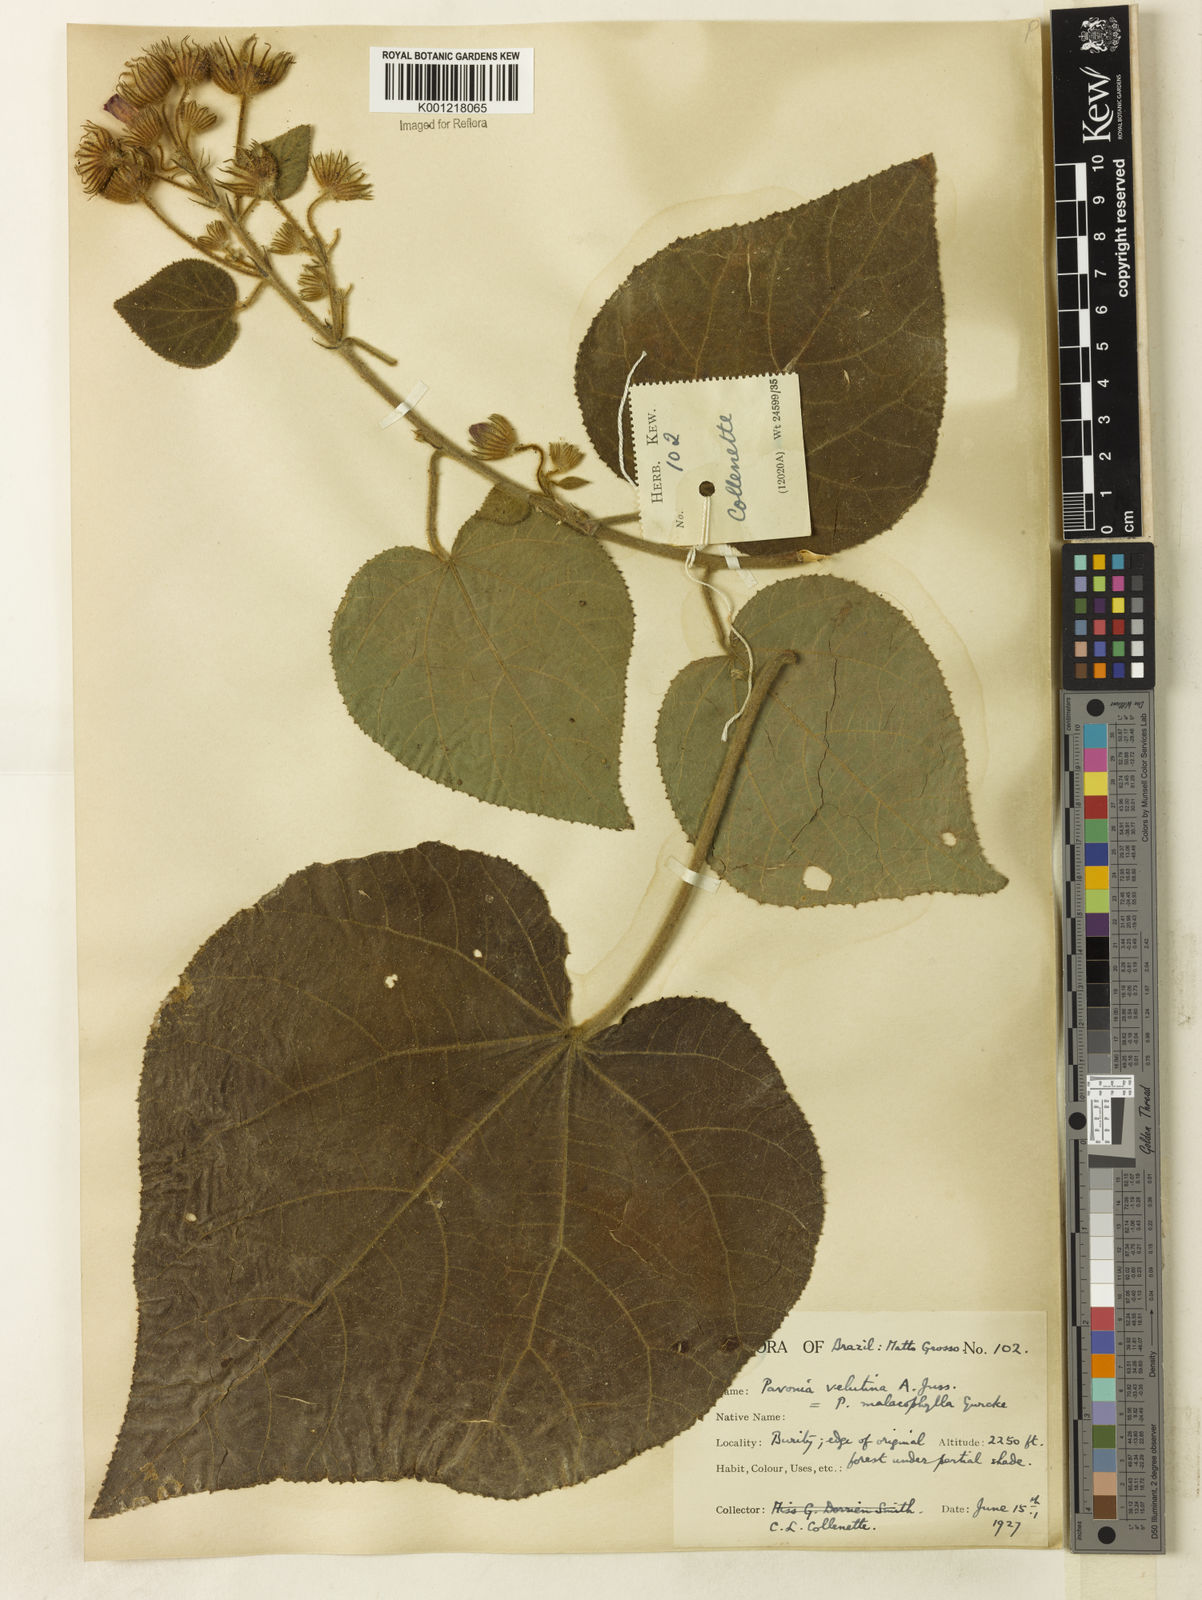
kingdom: Plantae
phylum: Tracheophyta
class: Magnoliopsida
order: Malvales
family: Malvaceae
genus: Pavonia
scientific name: Pavonia malacophylla
